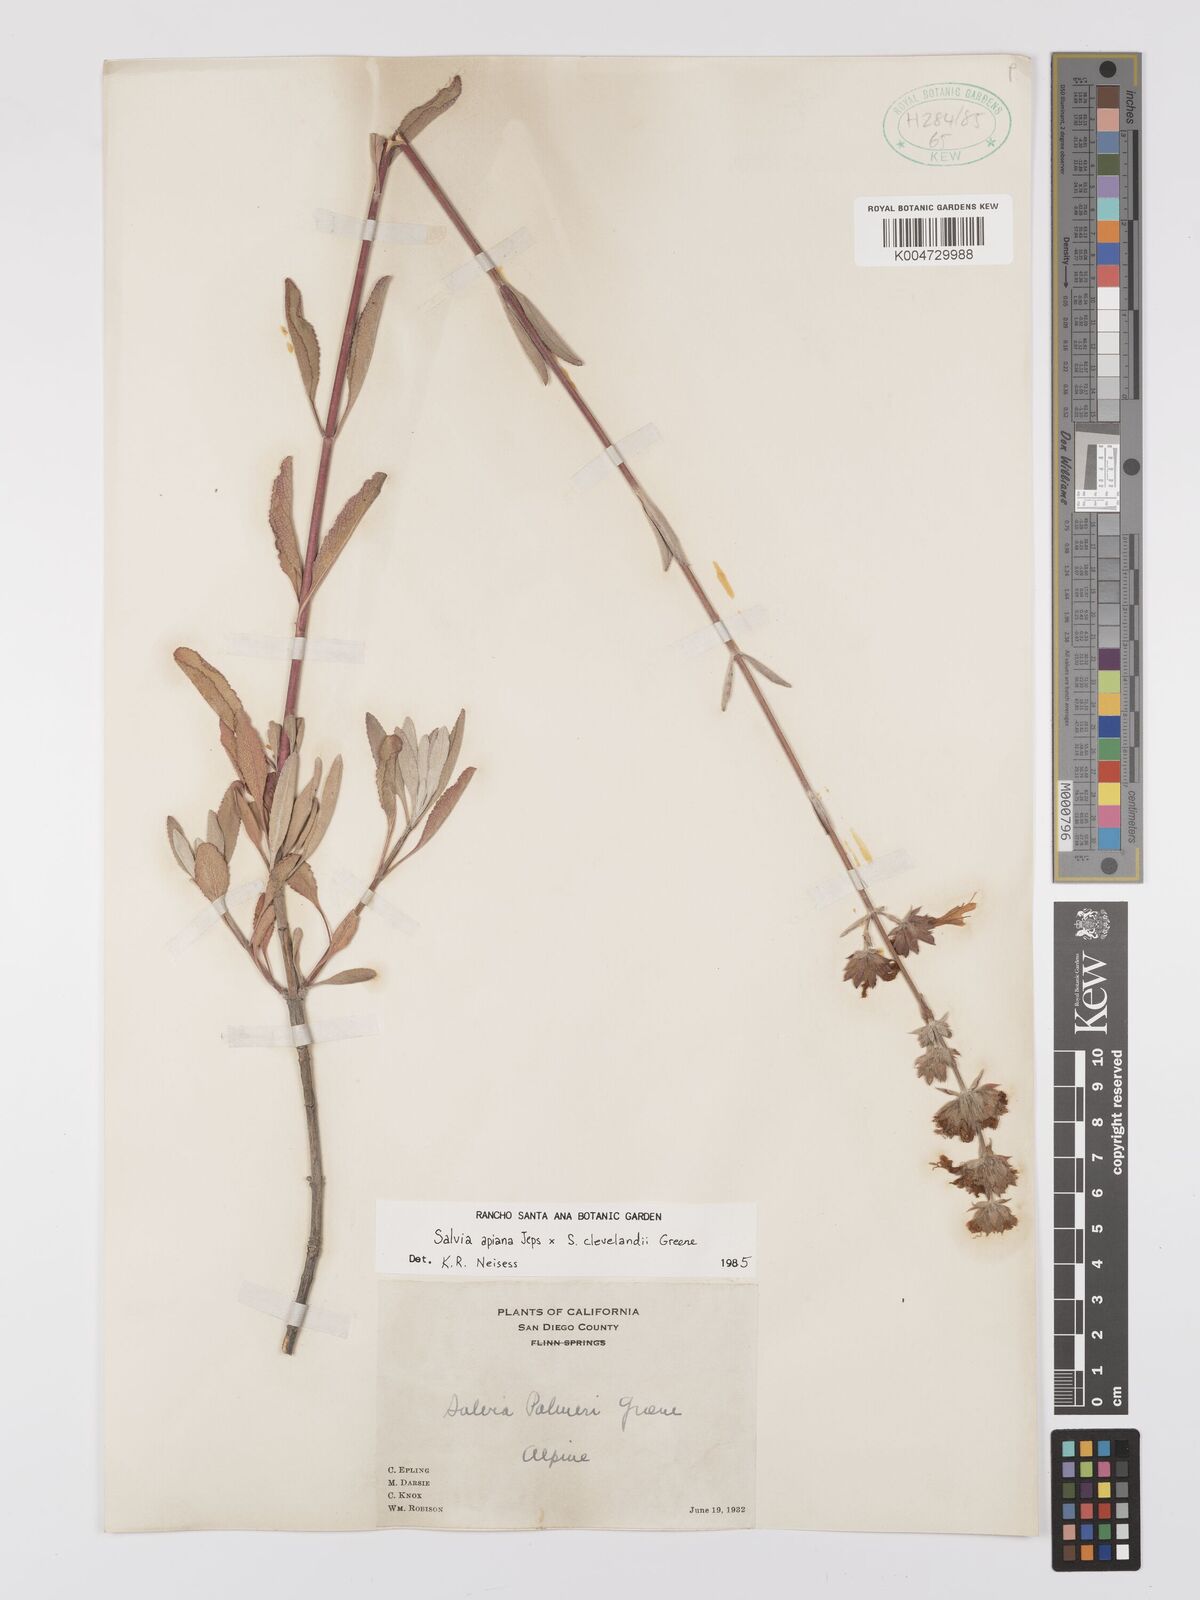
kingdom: Plantae
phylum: Tracheophyta
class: Magnoliopsida
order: Lamiales
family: Lamiaceae
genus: Salvia
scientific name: Salvia apiana
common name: White sage
